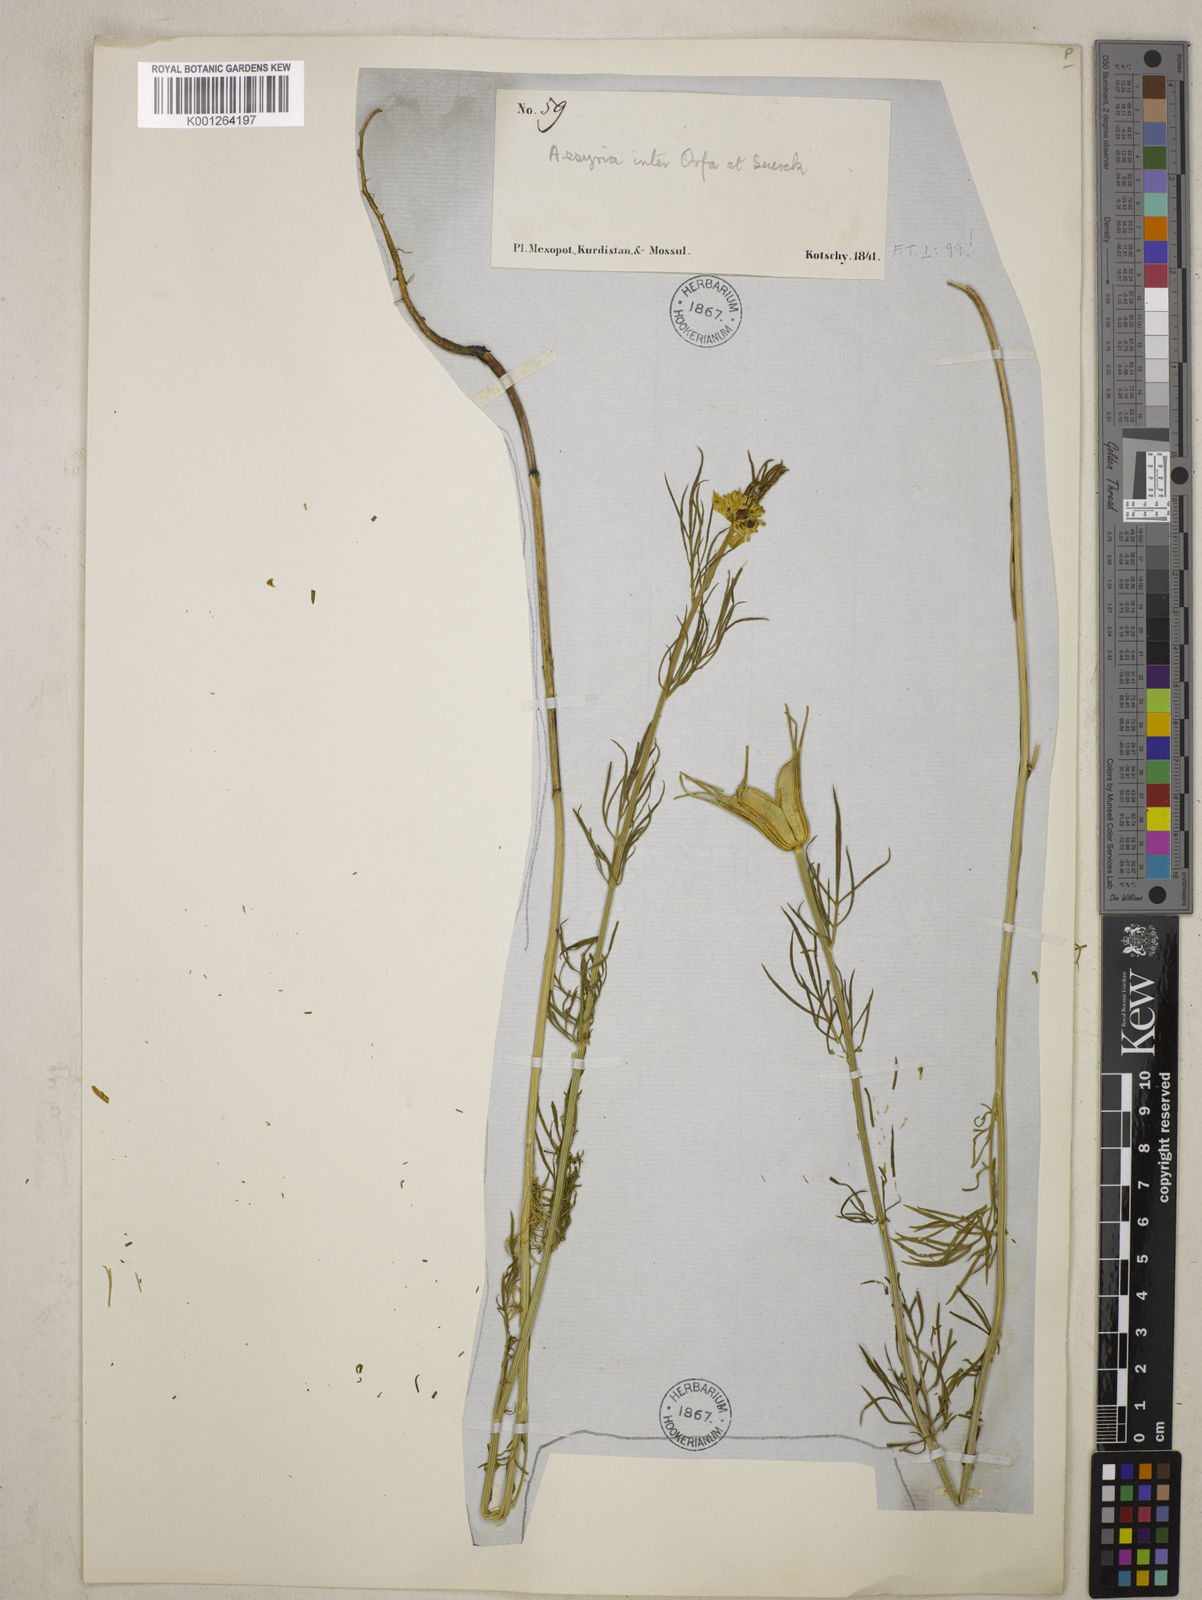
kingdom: Plantae
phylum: Tracheophyta
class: Magnoliopsida
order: Ranunculales
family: Ranunculaceae
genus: Nigella
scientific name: Nigella orientalis
